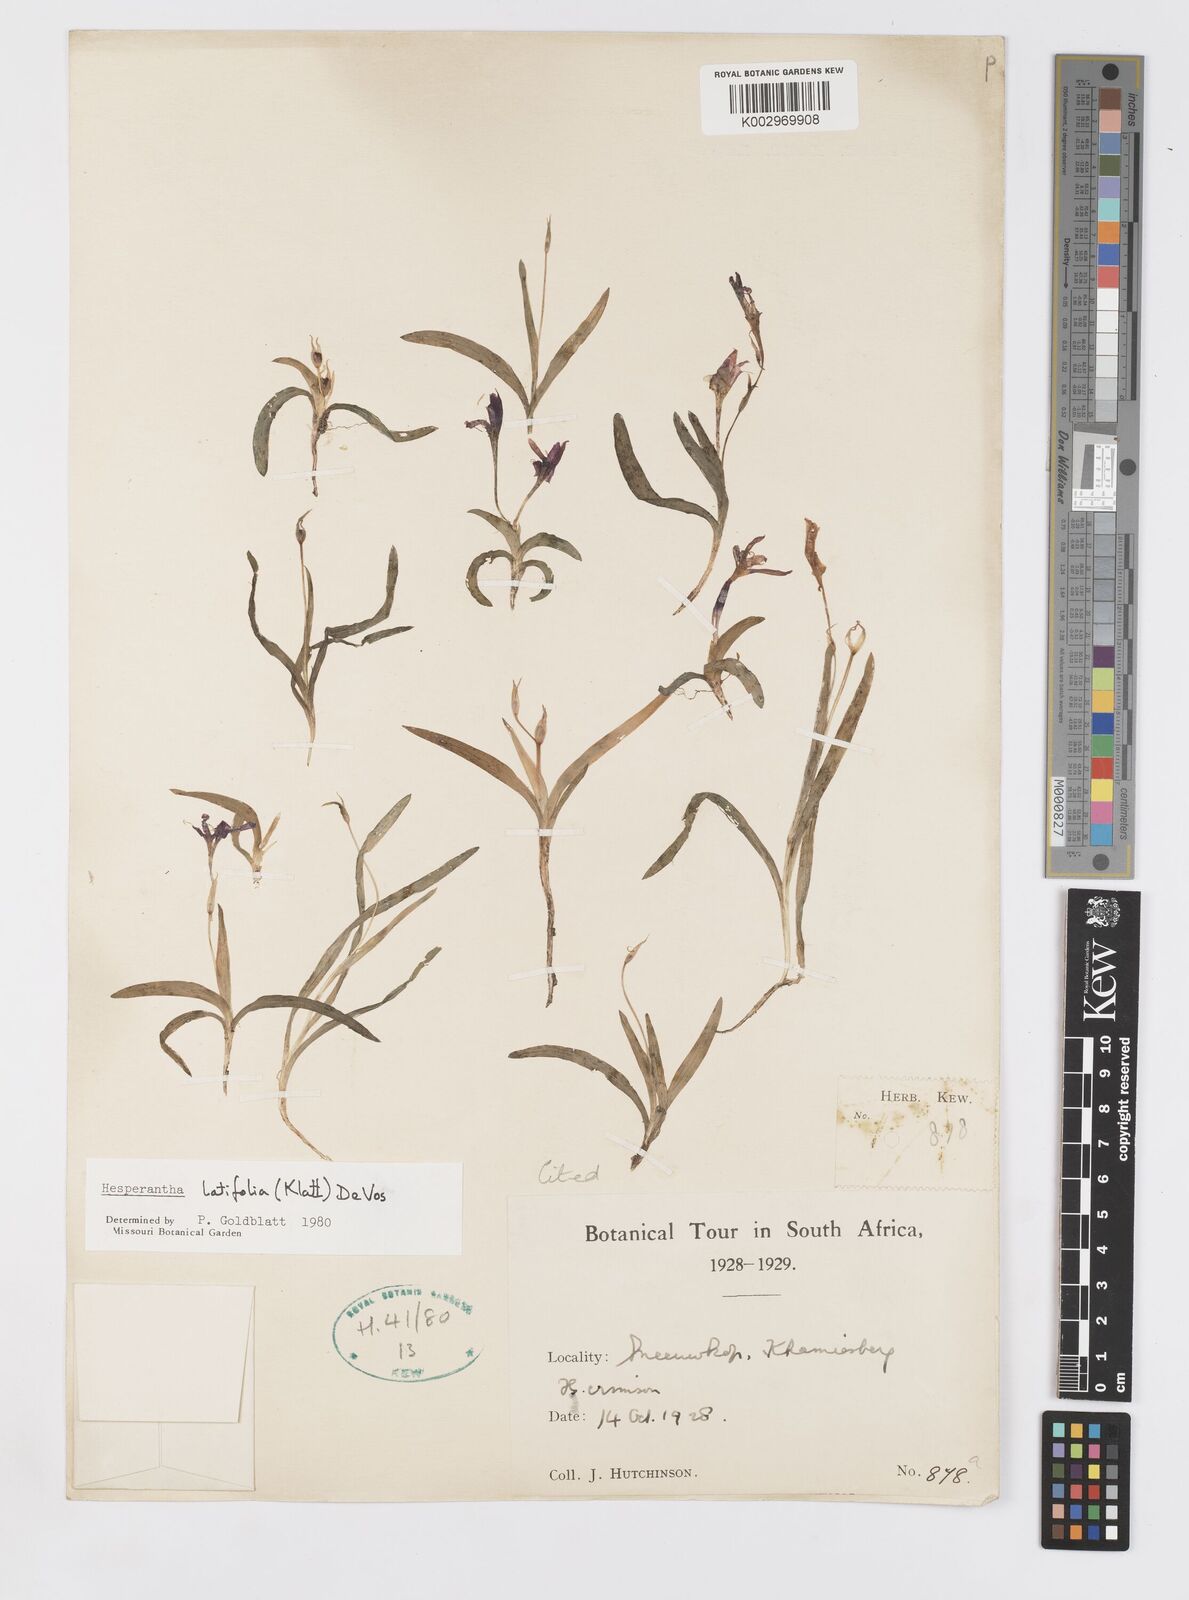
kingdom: Plantae
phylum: Tracheophyta
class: Liliopsida
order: Asparagales
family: Iridaceae
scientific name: Iridaceae
